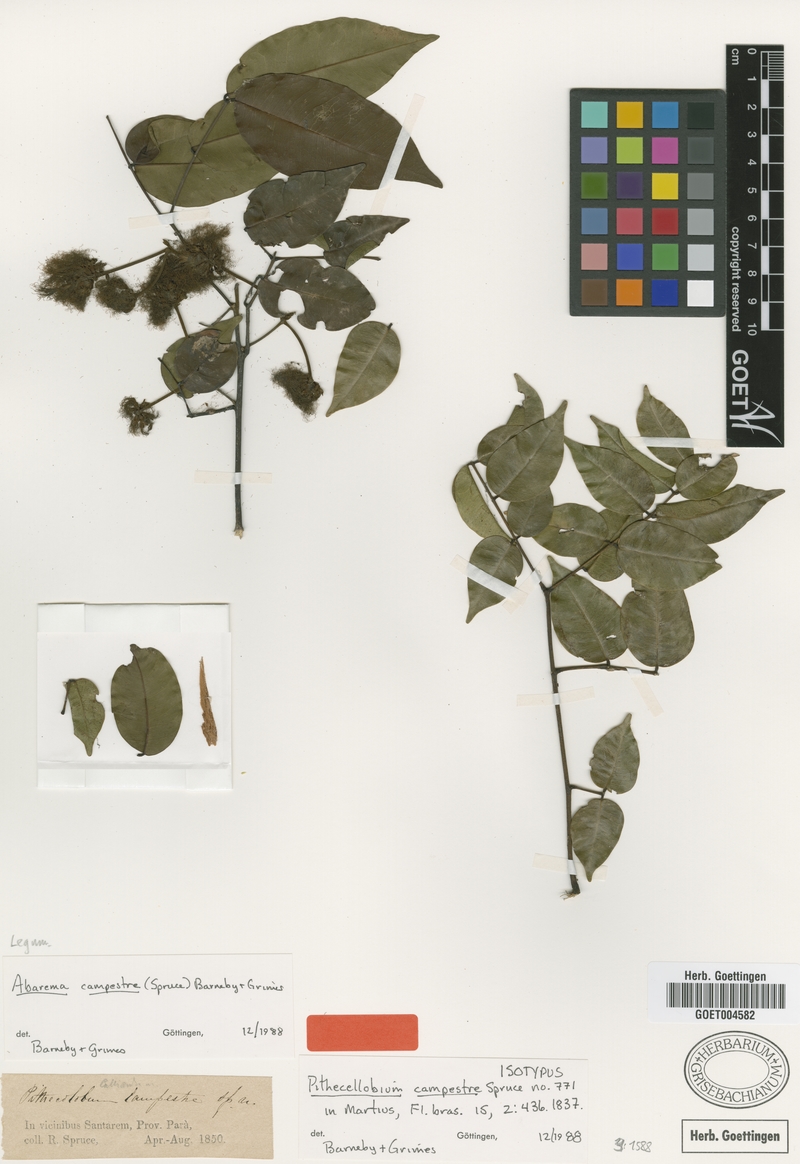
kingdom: Plantae
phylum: Tracheophyta
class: Magnoliopsida
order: Fabales
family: Fabaceae
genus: Jupunba
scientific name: Jupunba campestris
